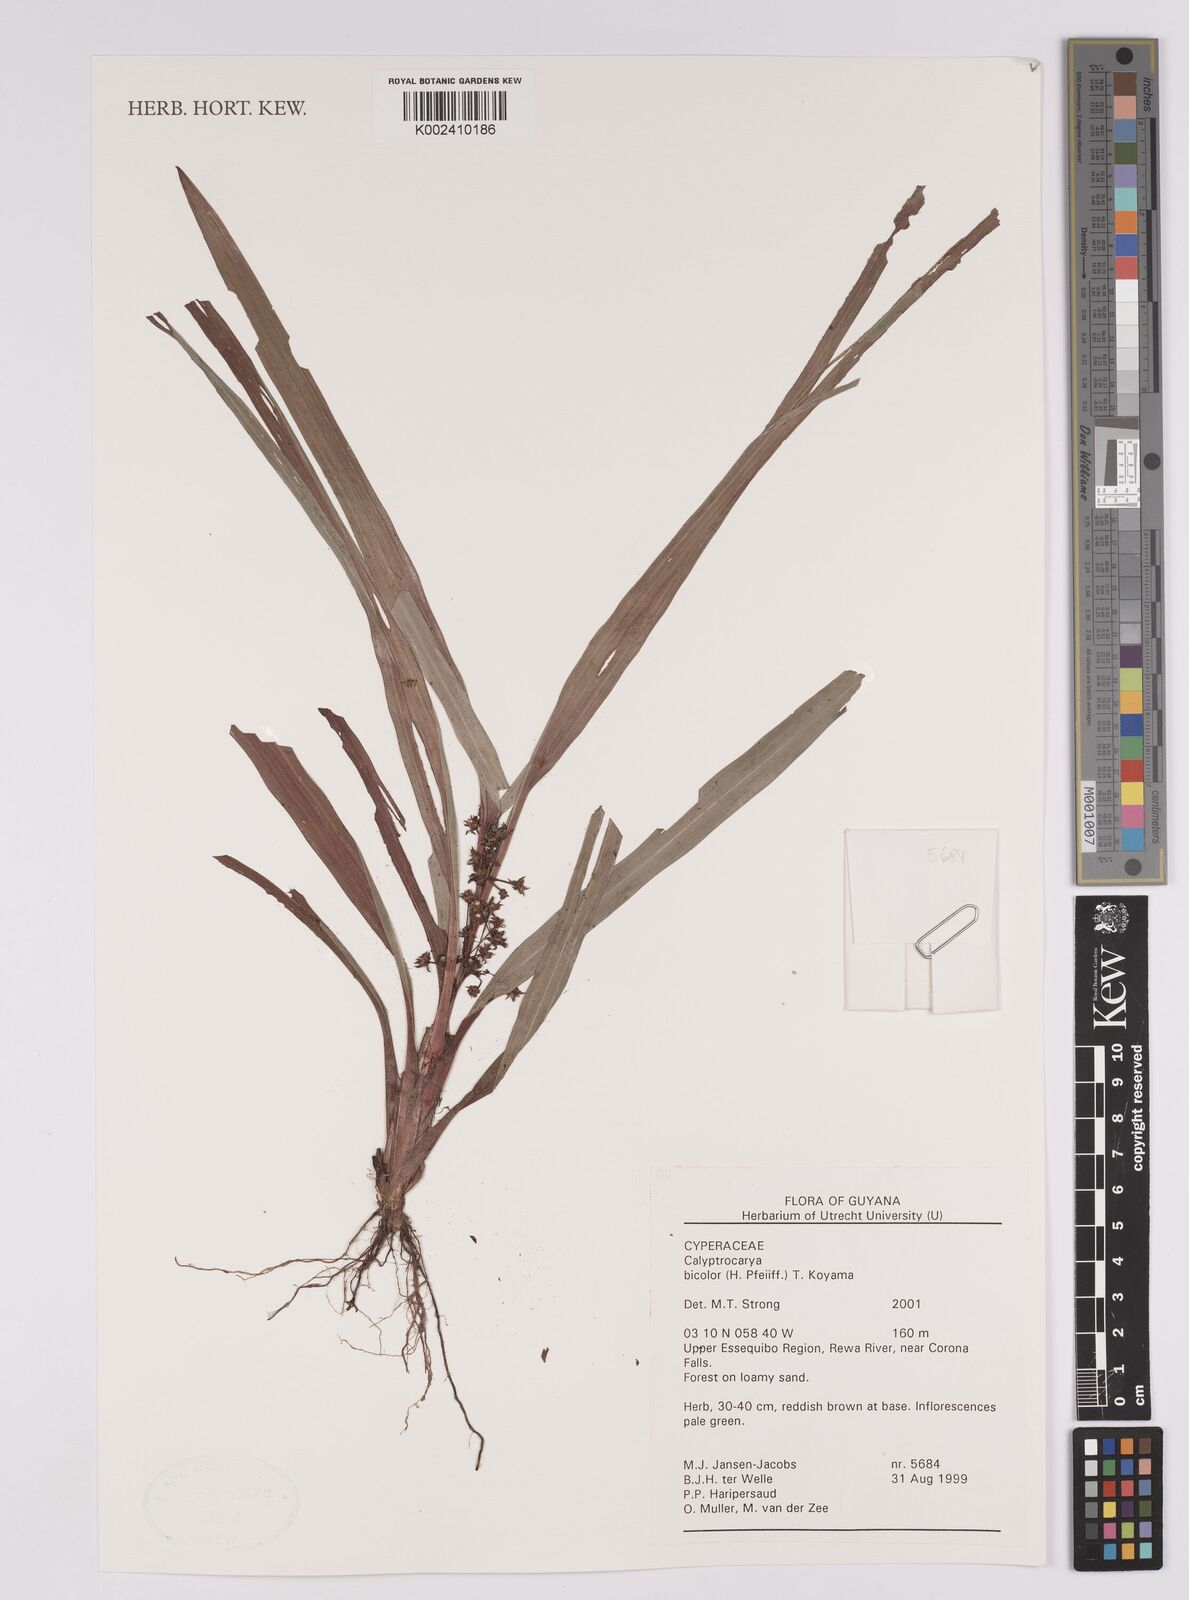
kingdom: Plantae
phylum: Tracheophyta
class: Liliopsida
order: Poales
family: Cyperaceae
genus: Calyptrocarya
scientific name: Calyptrocarya bicolor
